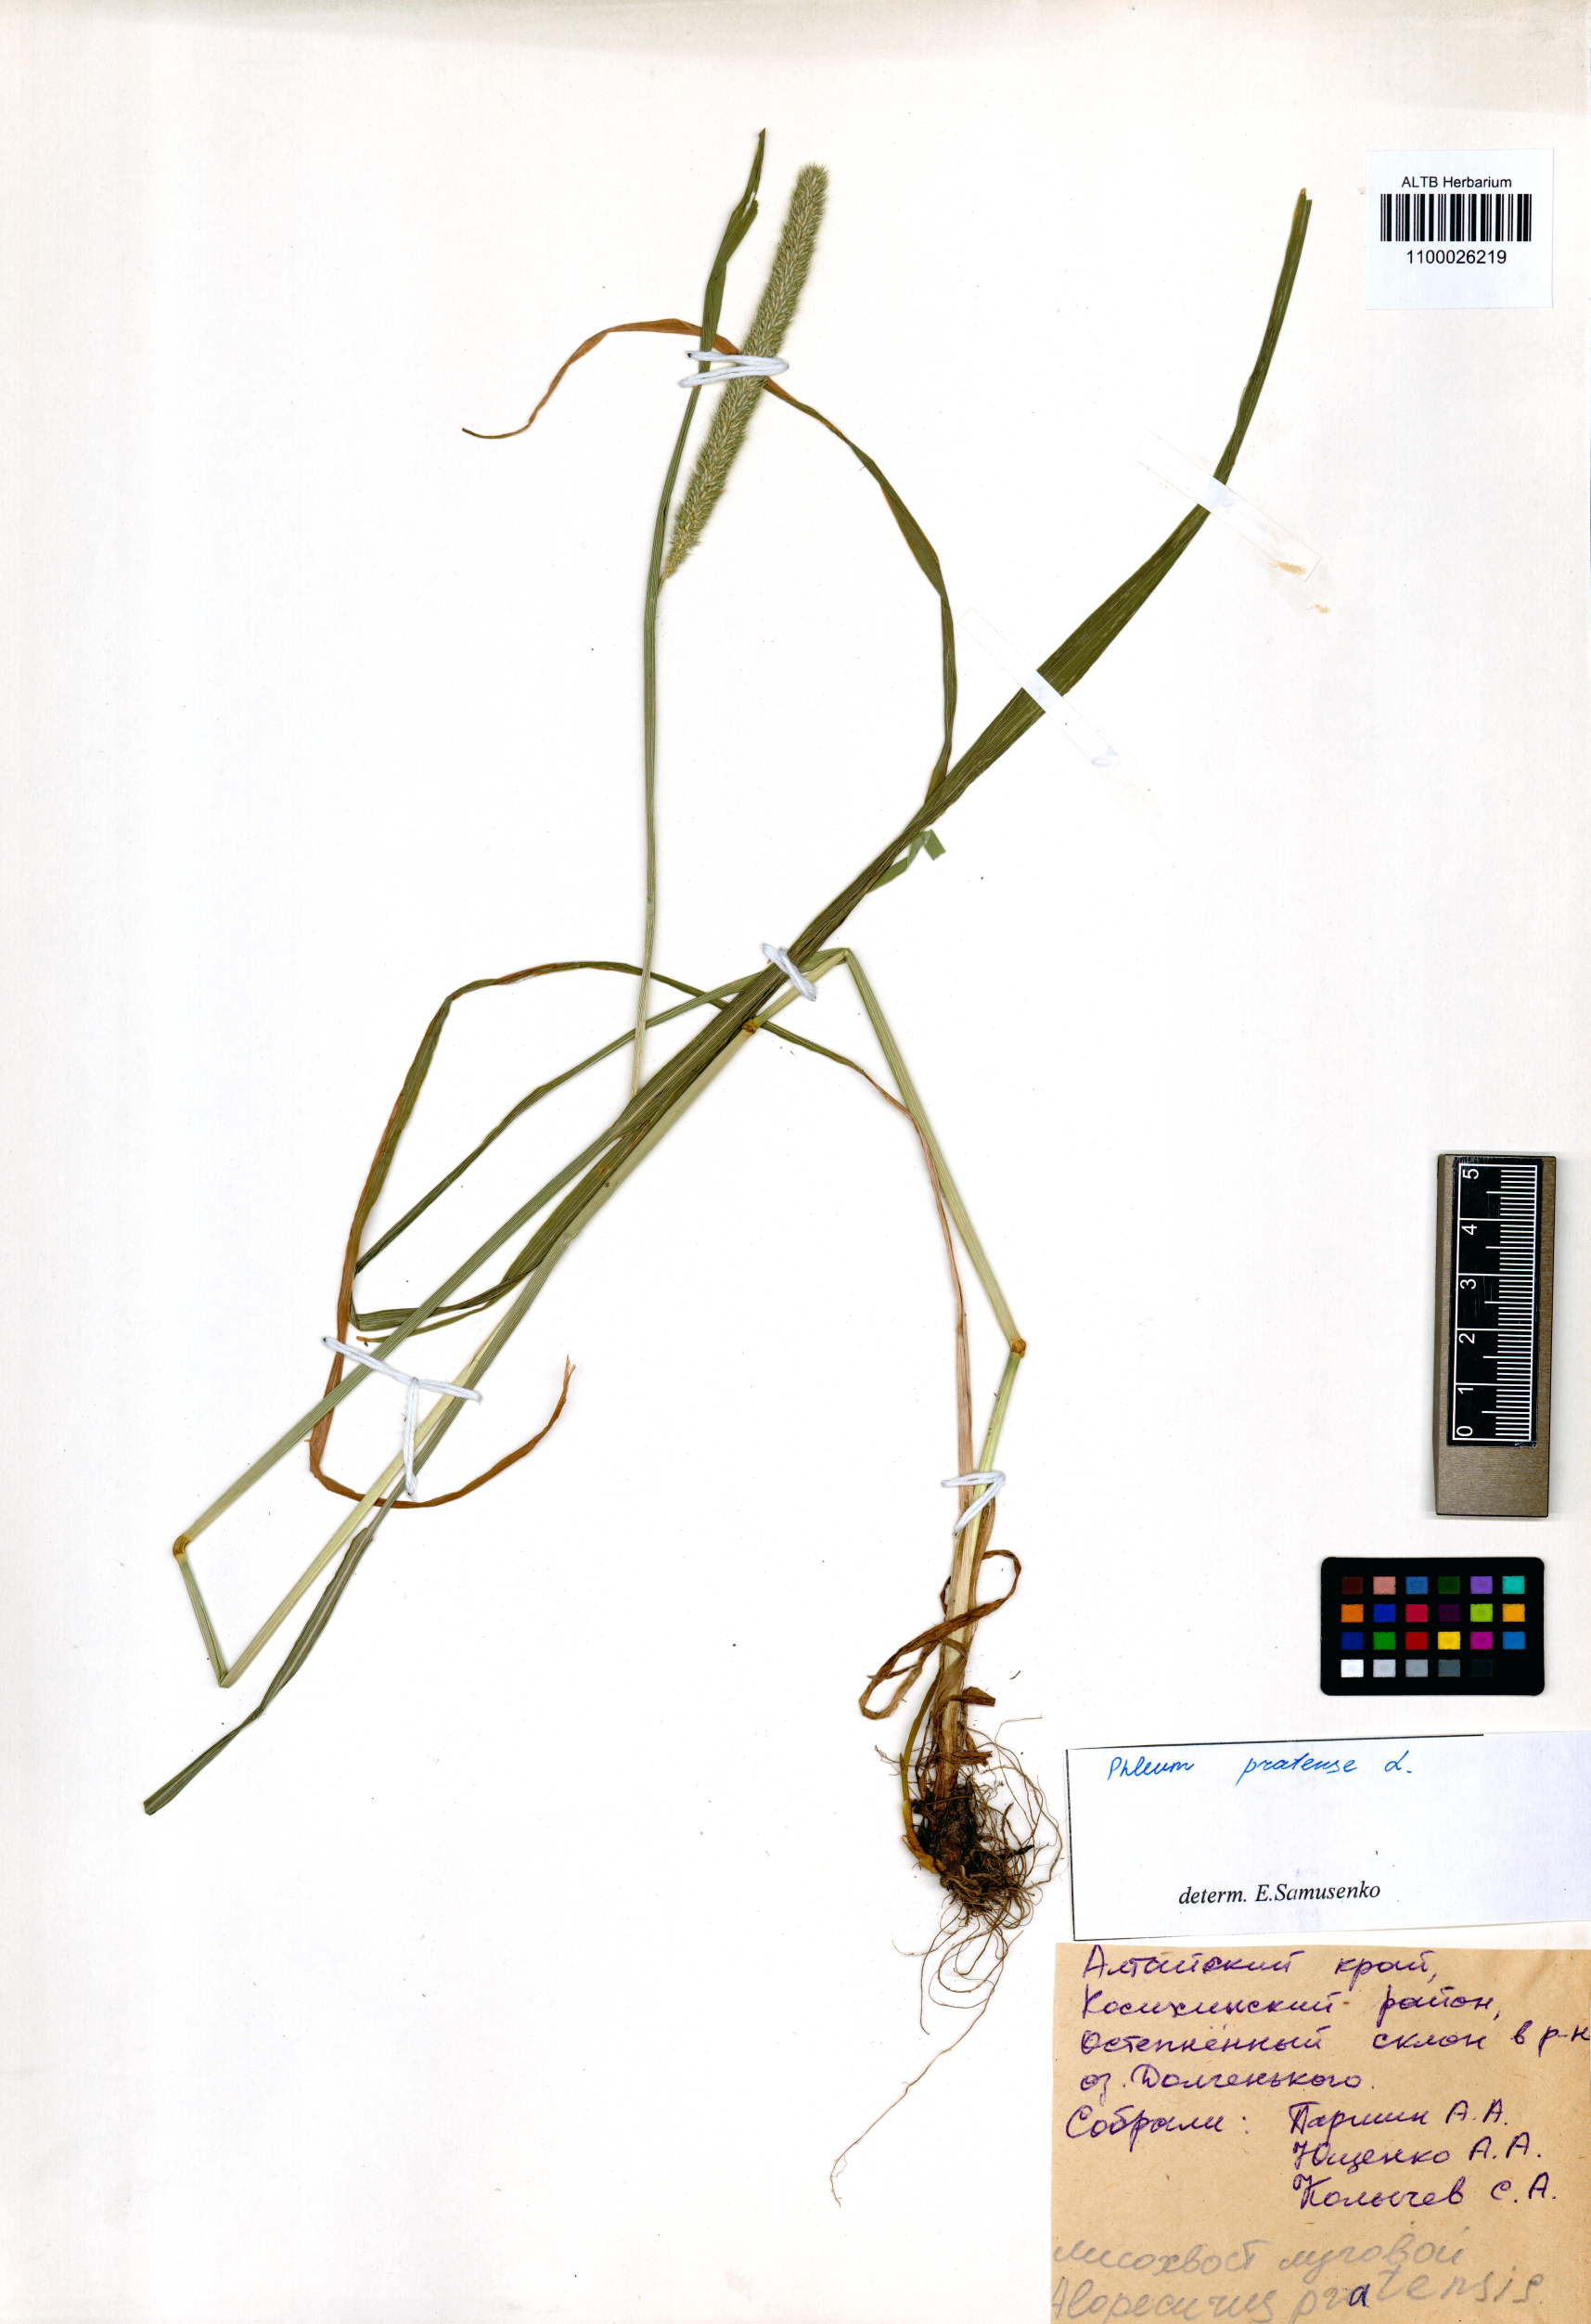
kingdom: Plantae
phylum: Tracheophyta
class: Liliopsida
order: Poales
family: Poaceae
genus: Phleum
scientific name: Phleum pratense
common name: Timothy grass
